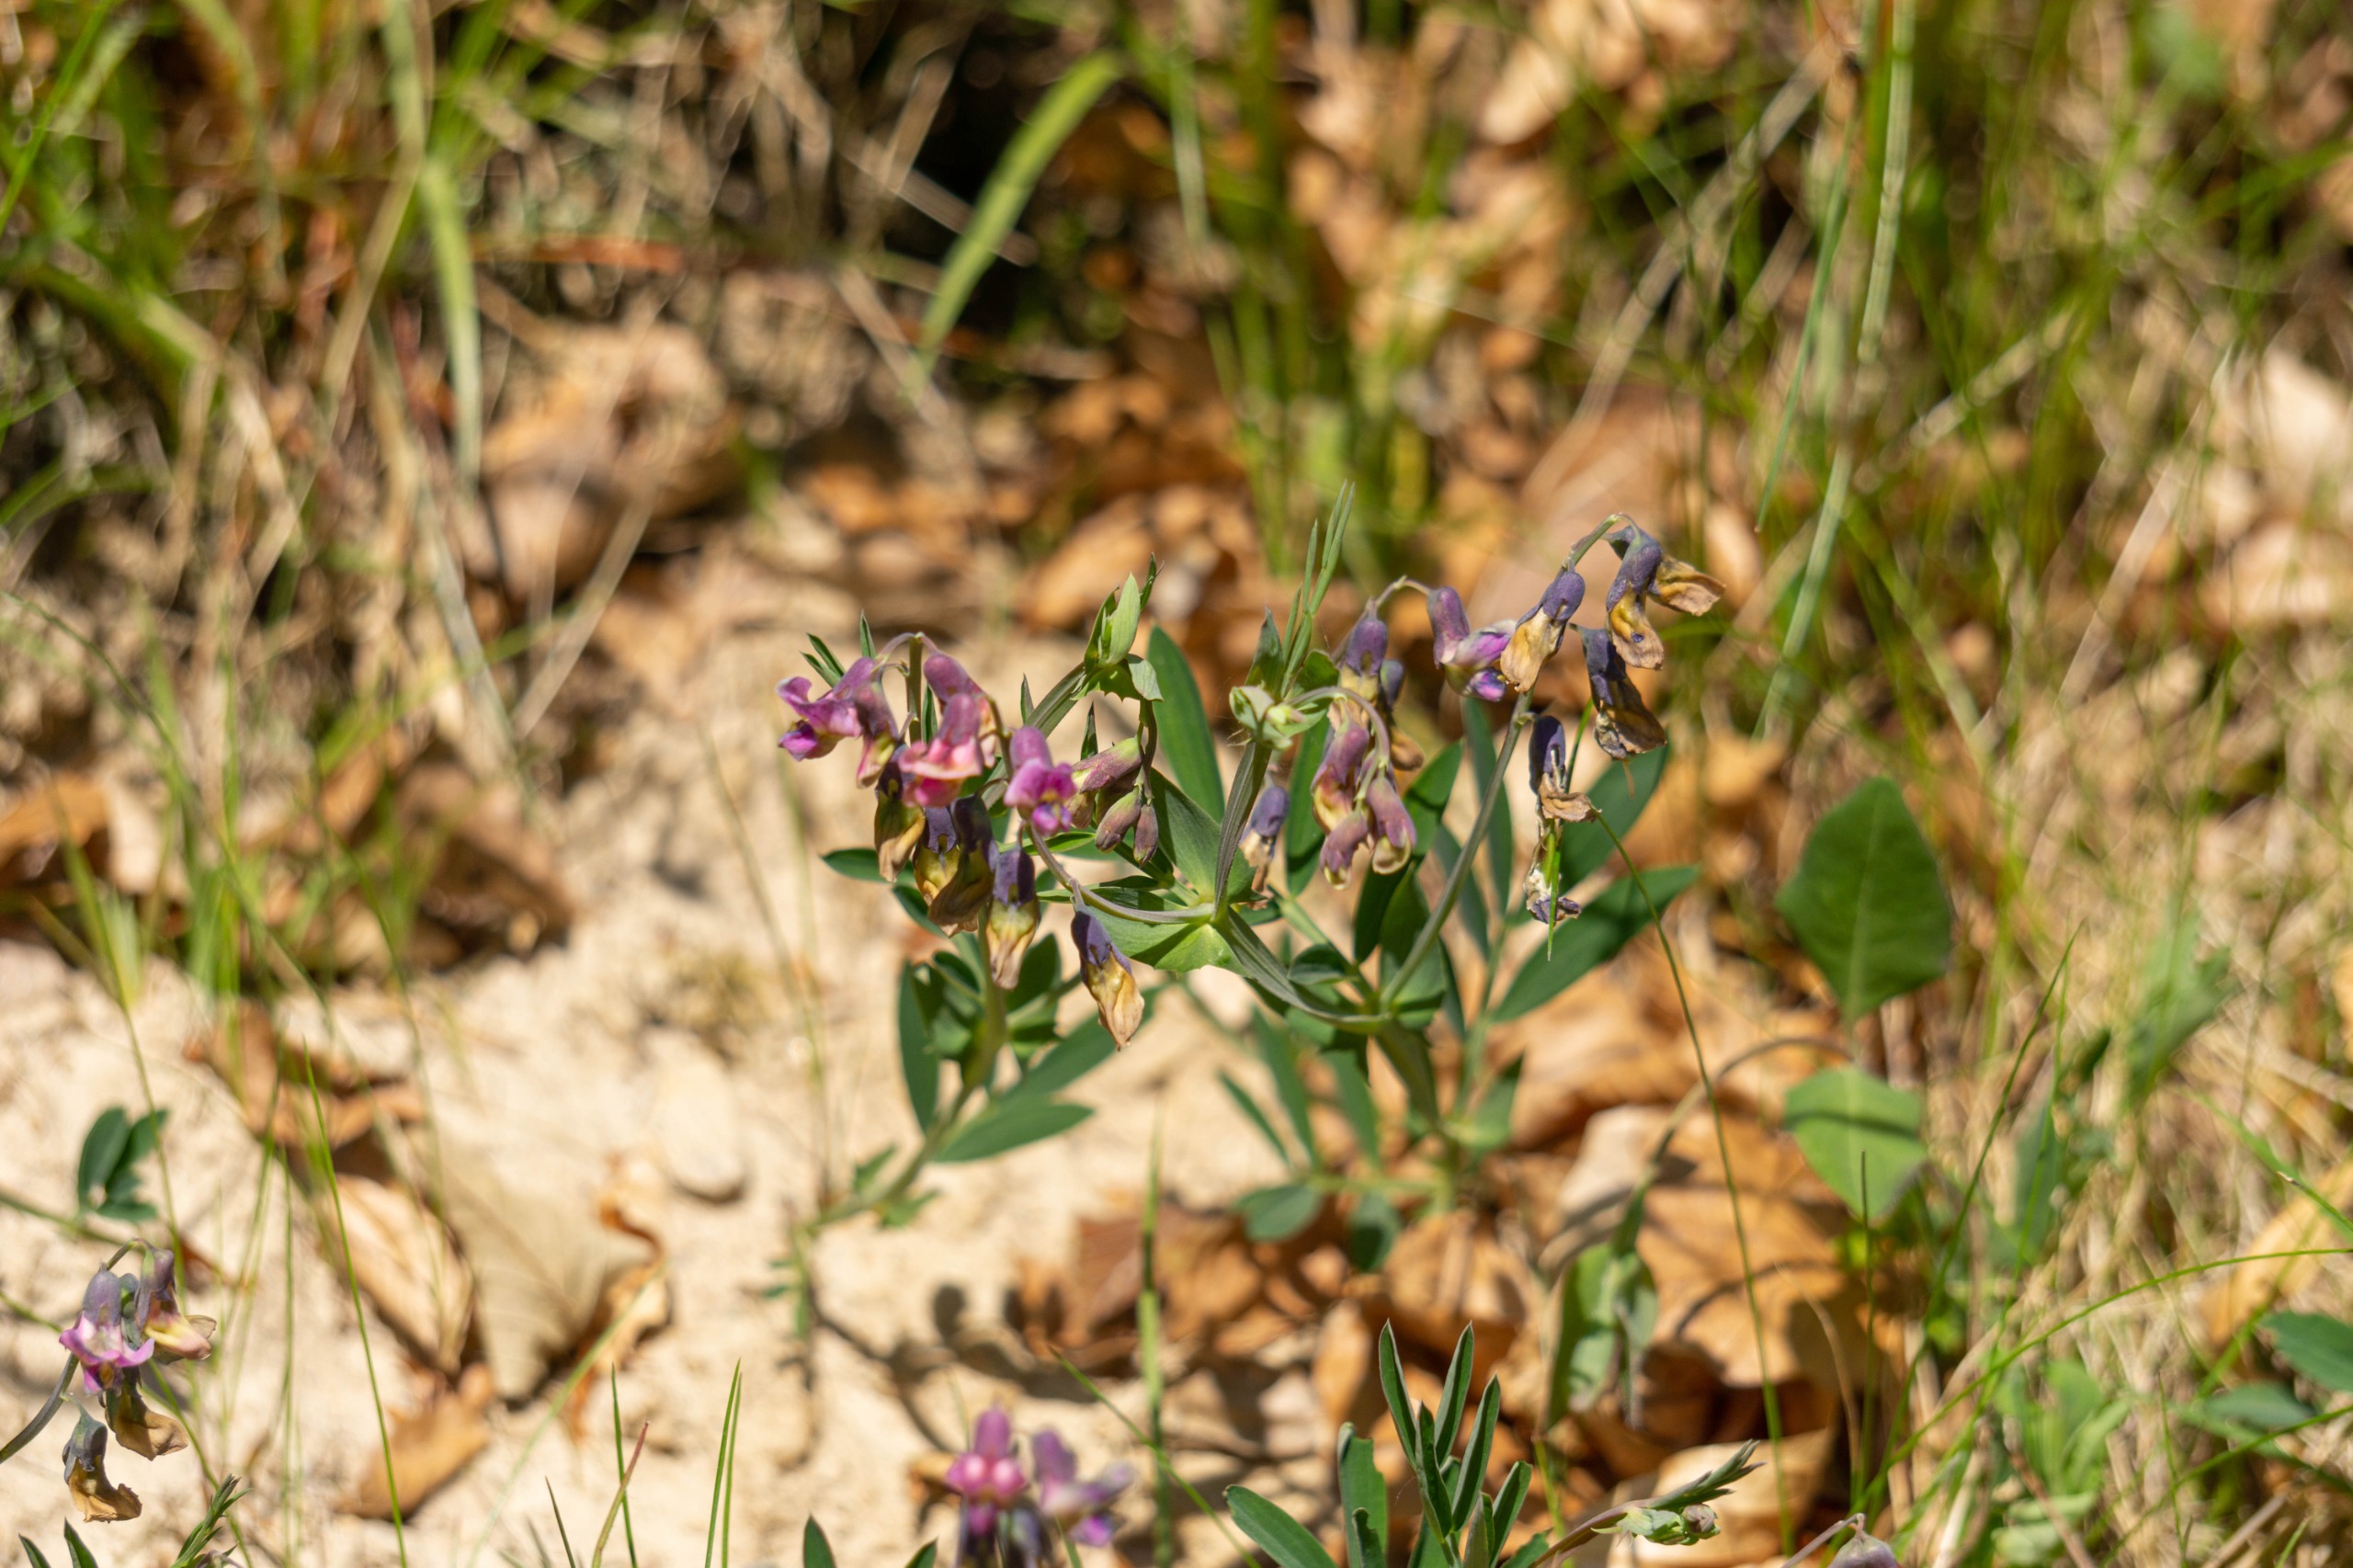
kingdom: Plantae
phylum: Tracheophyta
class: Magnoliopsida
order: Fabales
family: Fabaceae
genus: Lathyrus
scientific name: Lathyrus linifolius
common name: Krat-fladbælg
